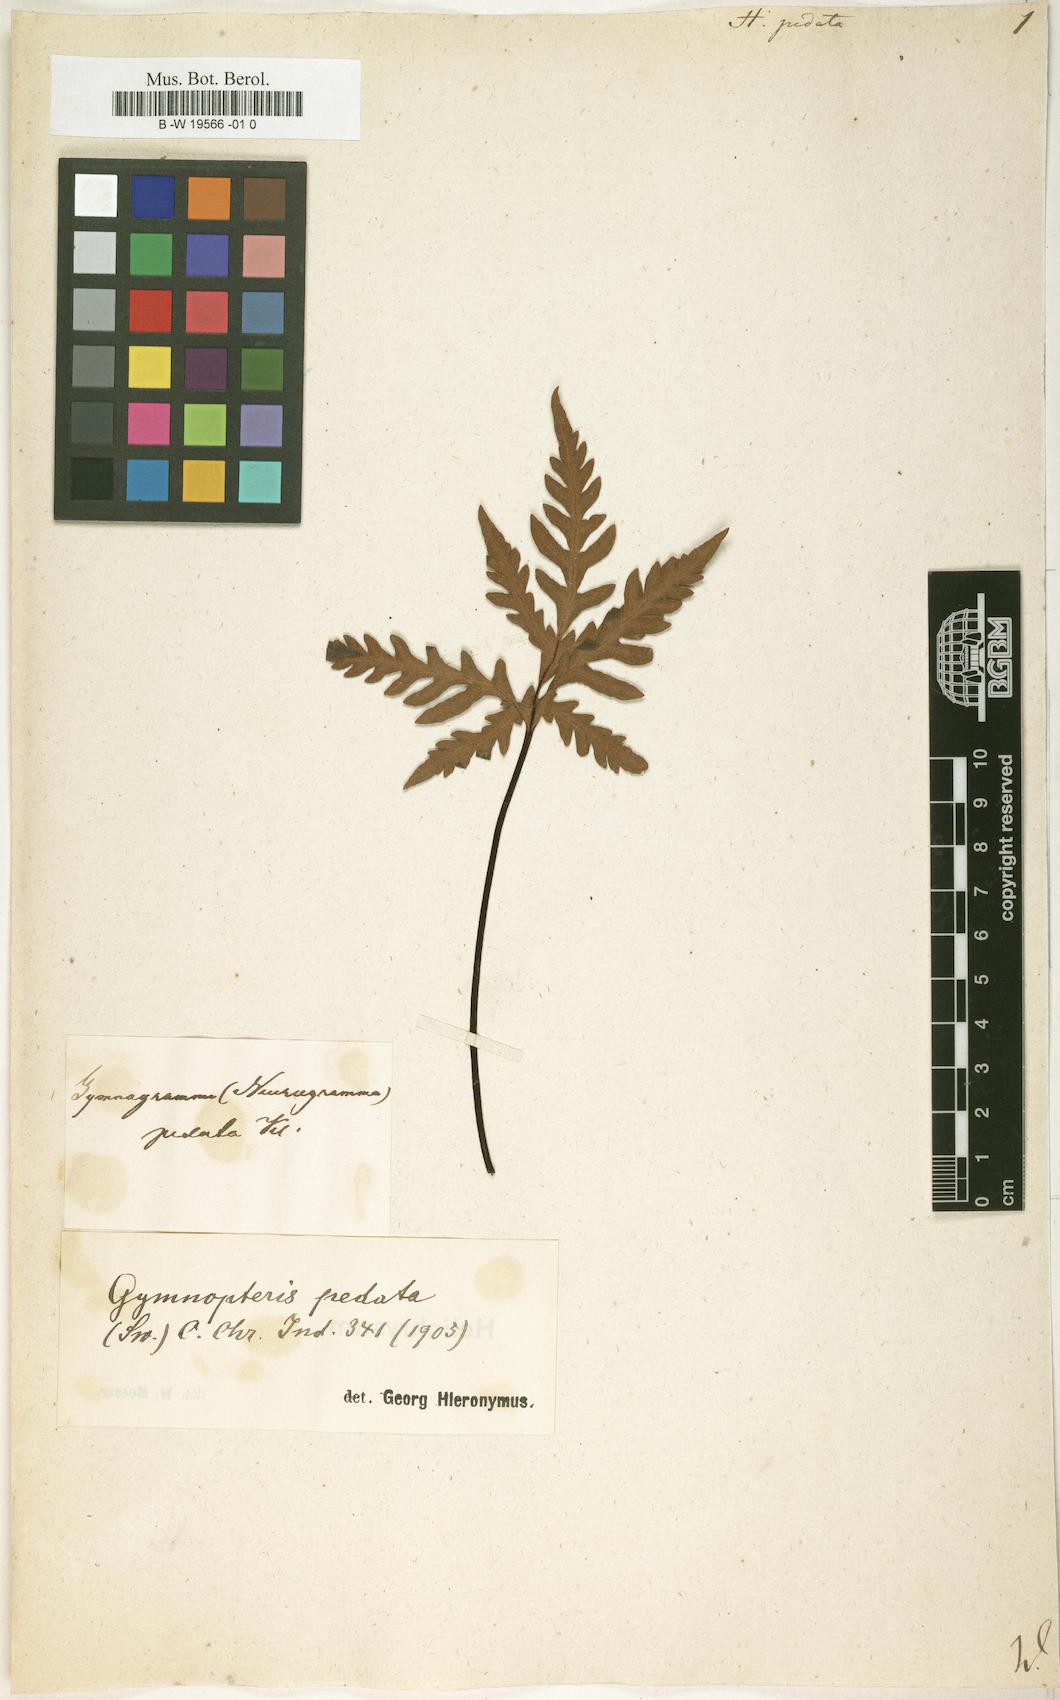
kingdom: Plantae
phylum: Tracheophyta
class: Polypodiopsida
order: Polypodiales
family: Pteridaceae
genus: Bommeria
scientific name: Bommeria pedata
